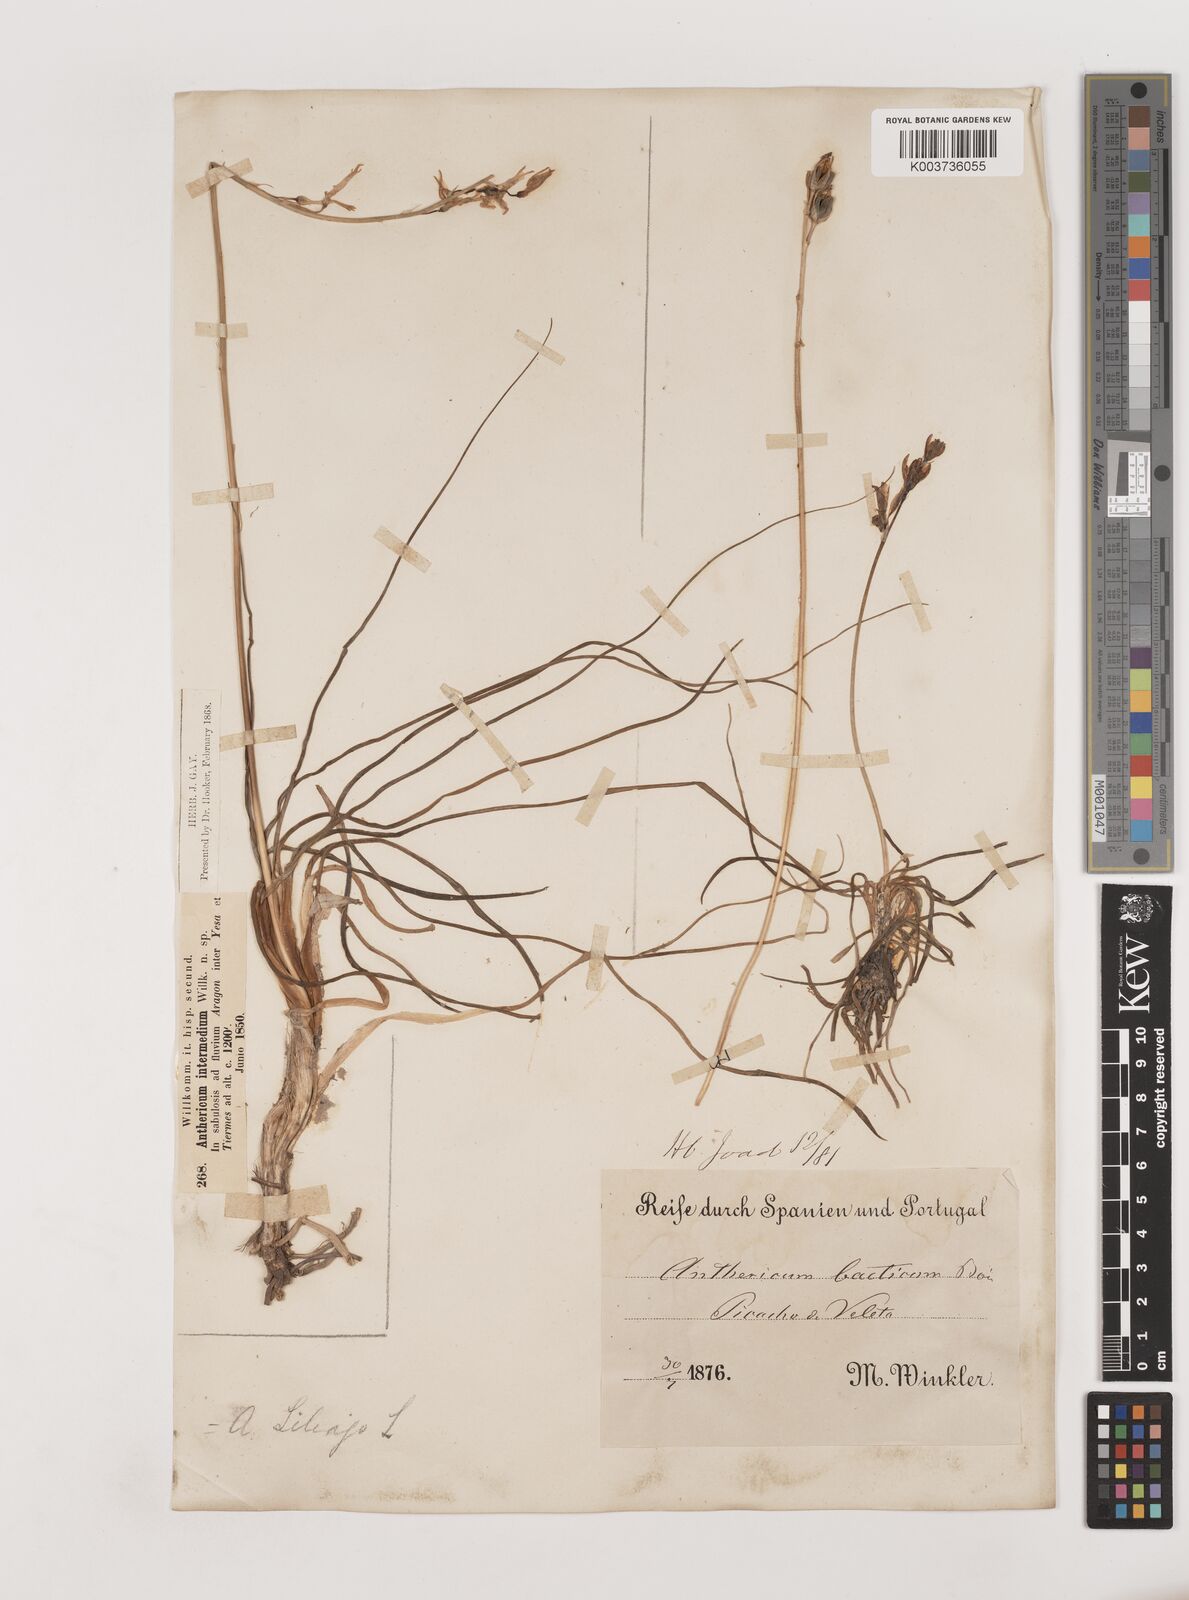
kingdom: Plantae
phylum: Tracheophyta
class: Liliopsida
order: Asparagales
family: Asparagaceae
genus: Anthericum
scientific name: Anthericum liliago
